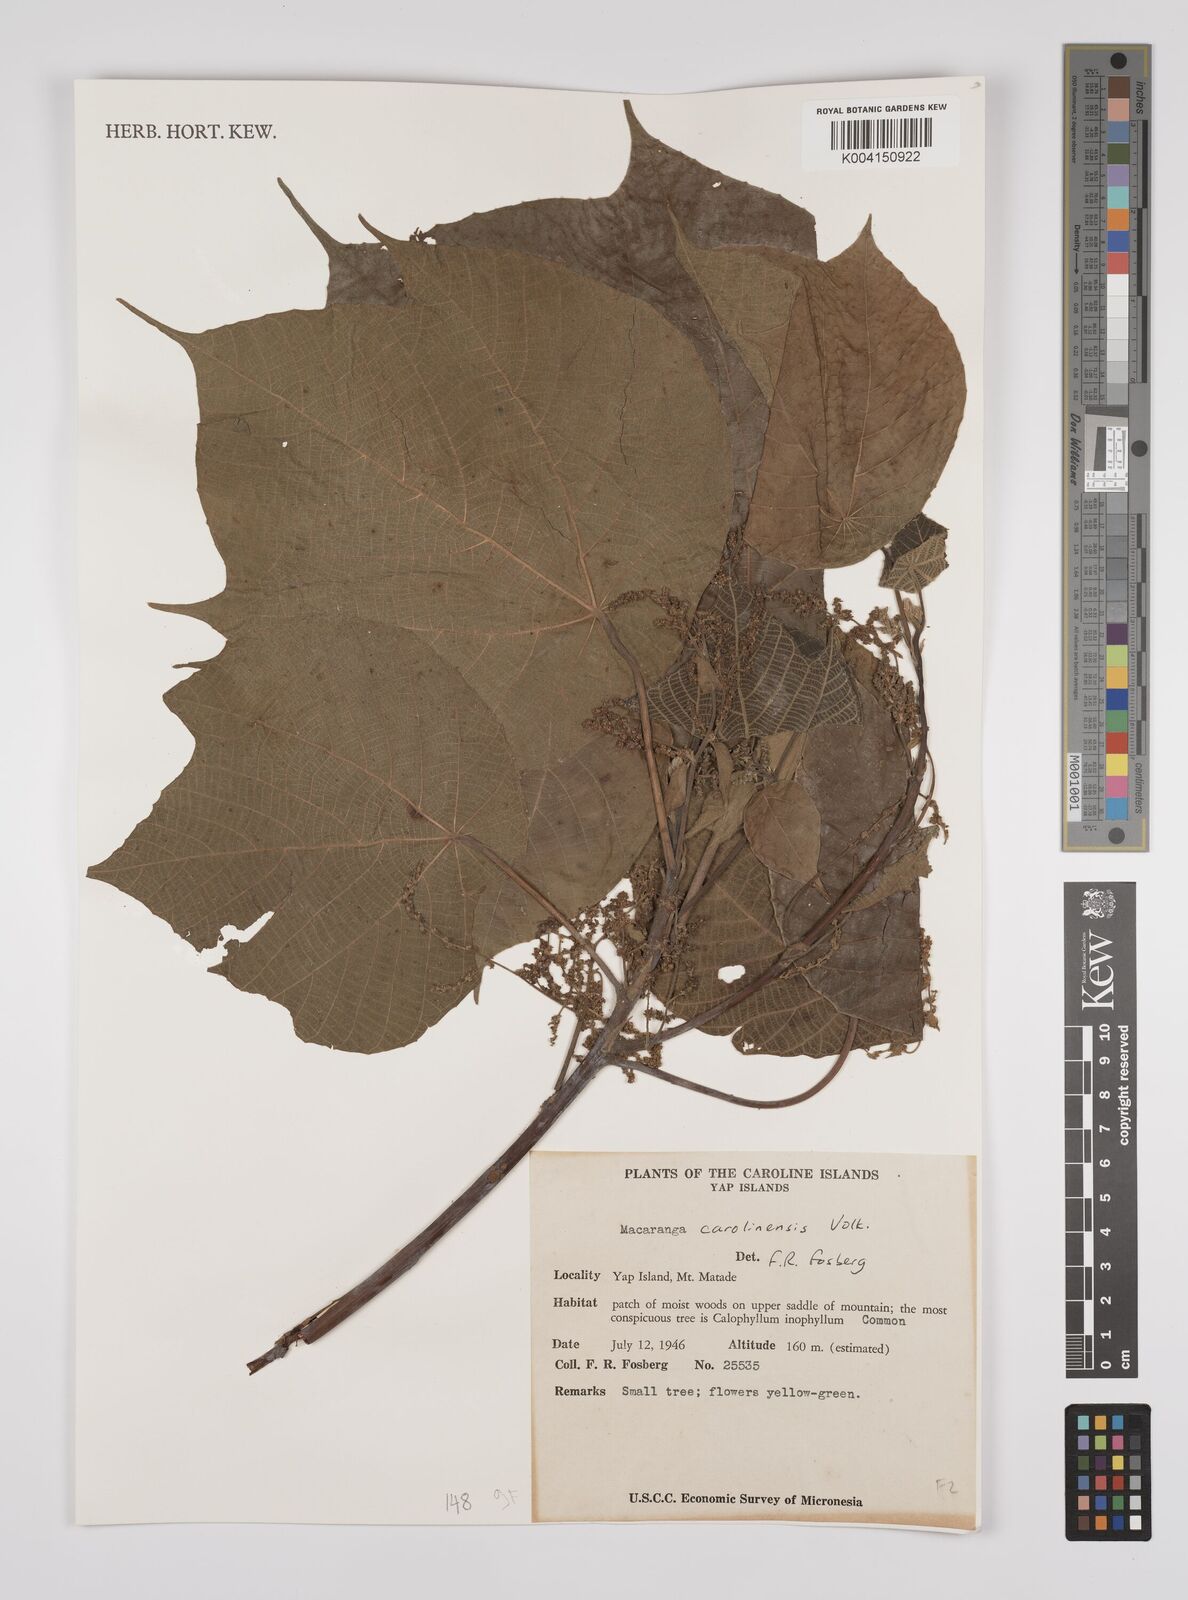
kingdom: Plantae
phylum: Tracheophyta
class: Magnoliopsida
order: Malpighiales
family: Euphorbiaceae
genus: Macaranga
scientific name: Macaranga carolinensis
